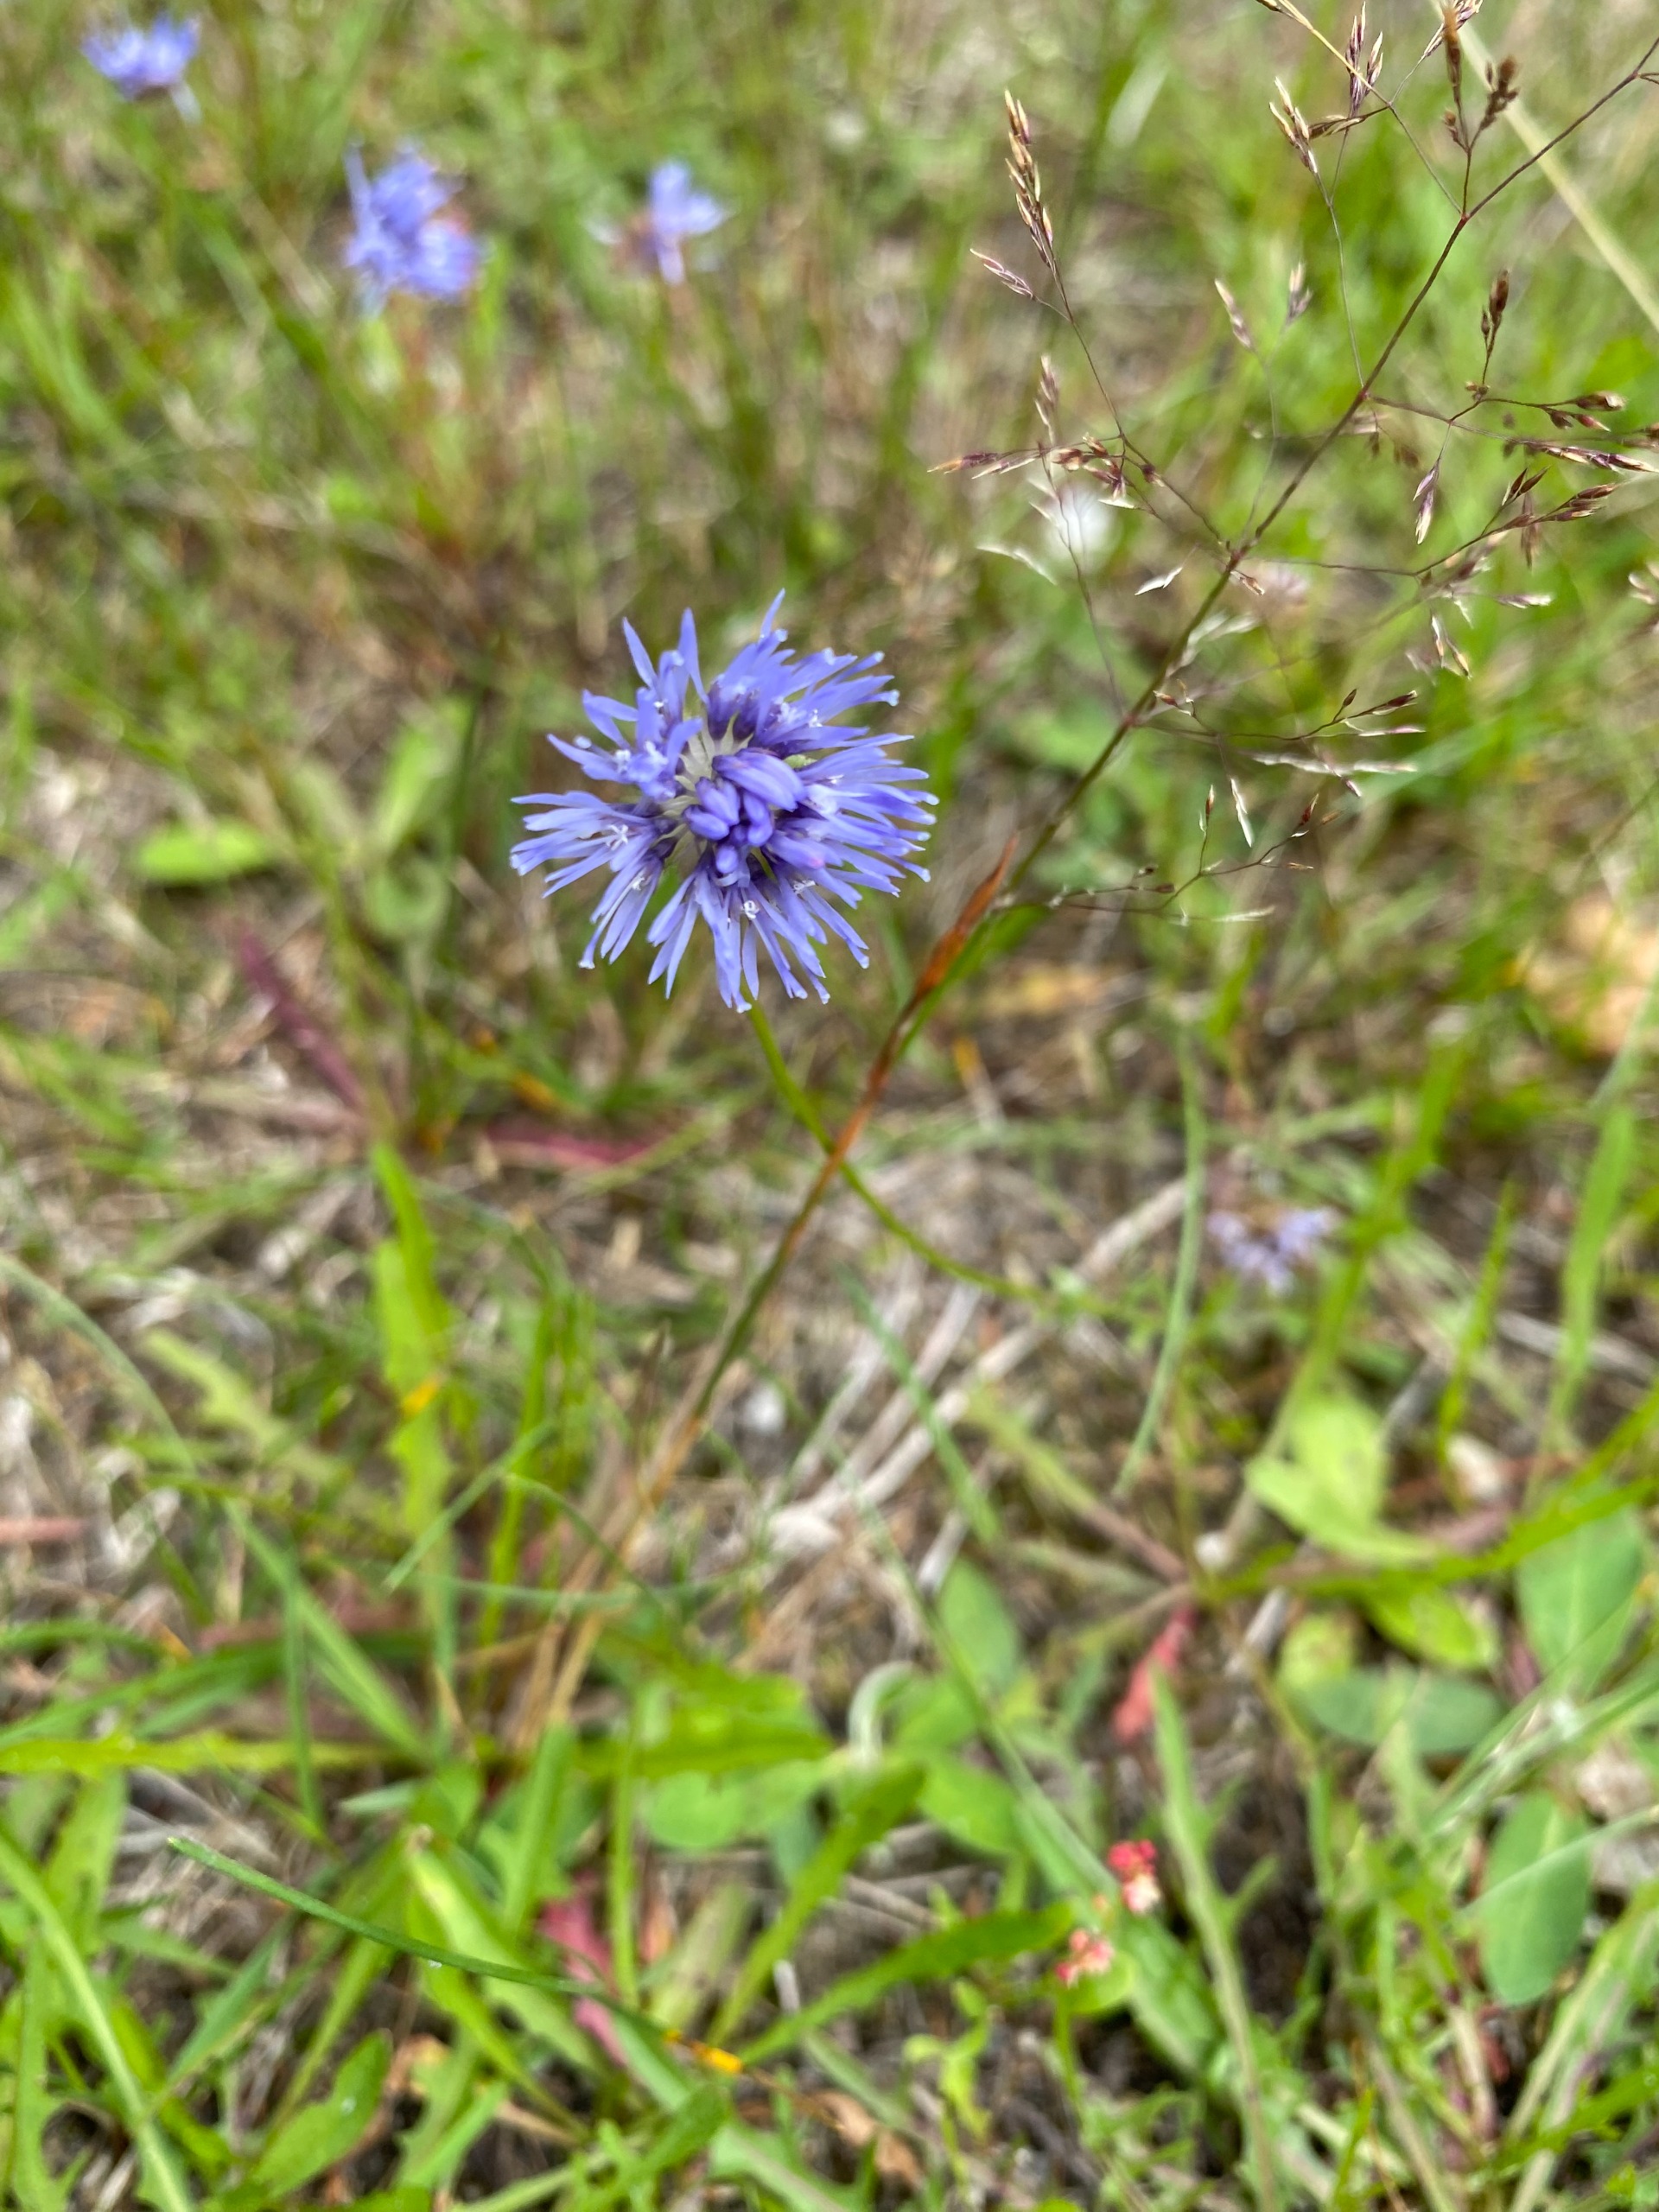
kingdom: Plantae
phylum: Tracheophyta
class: Magnoliopsida
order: Asterales
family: Campanulaceae
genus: Jasione
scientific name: Jasione montana
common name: Blåmunke
